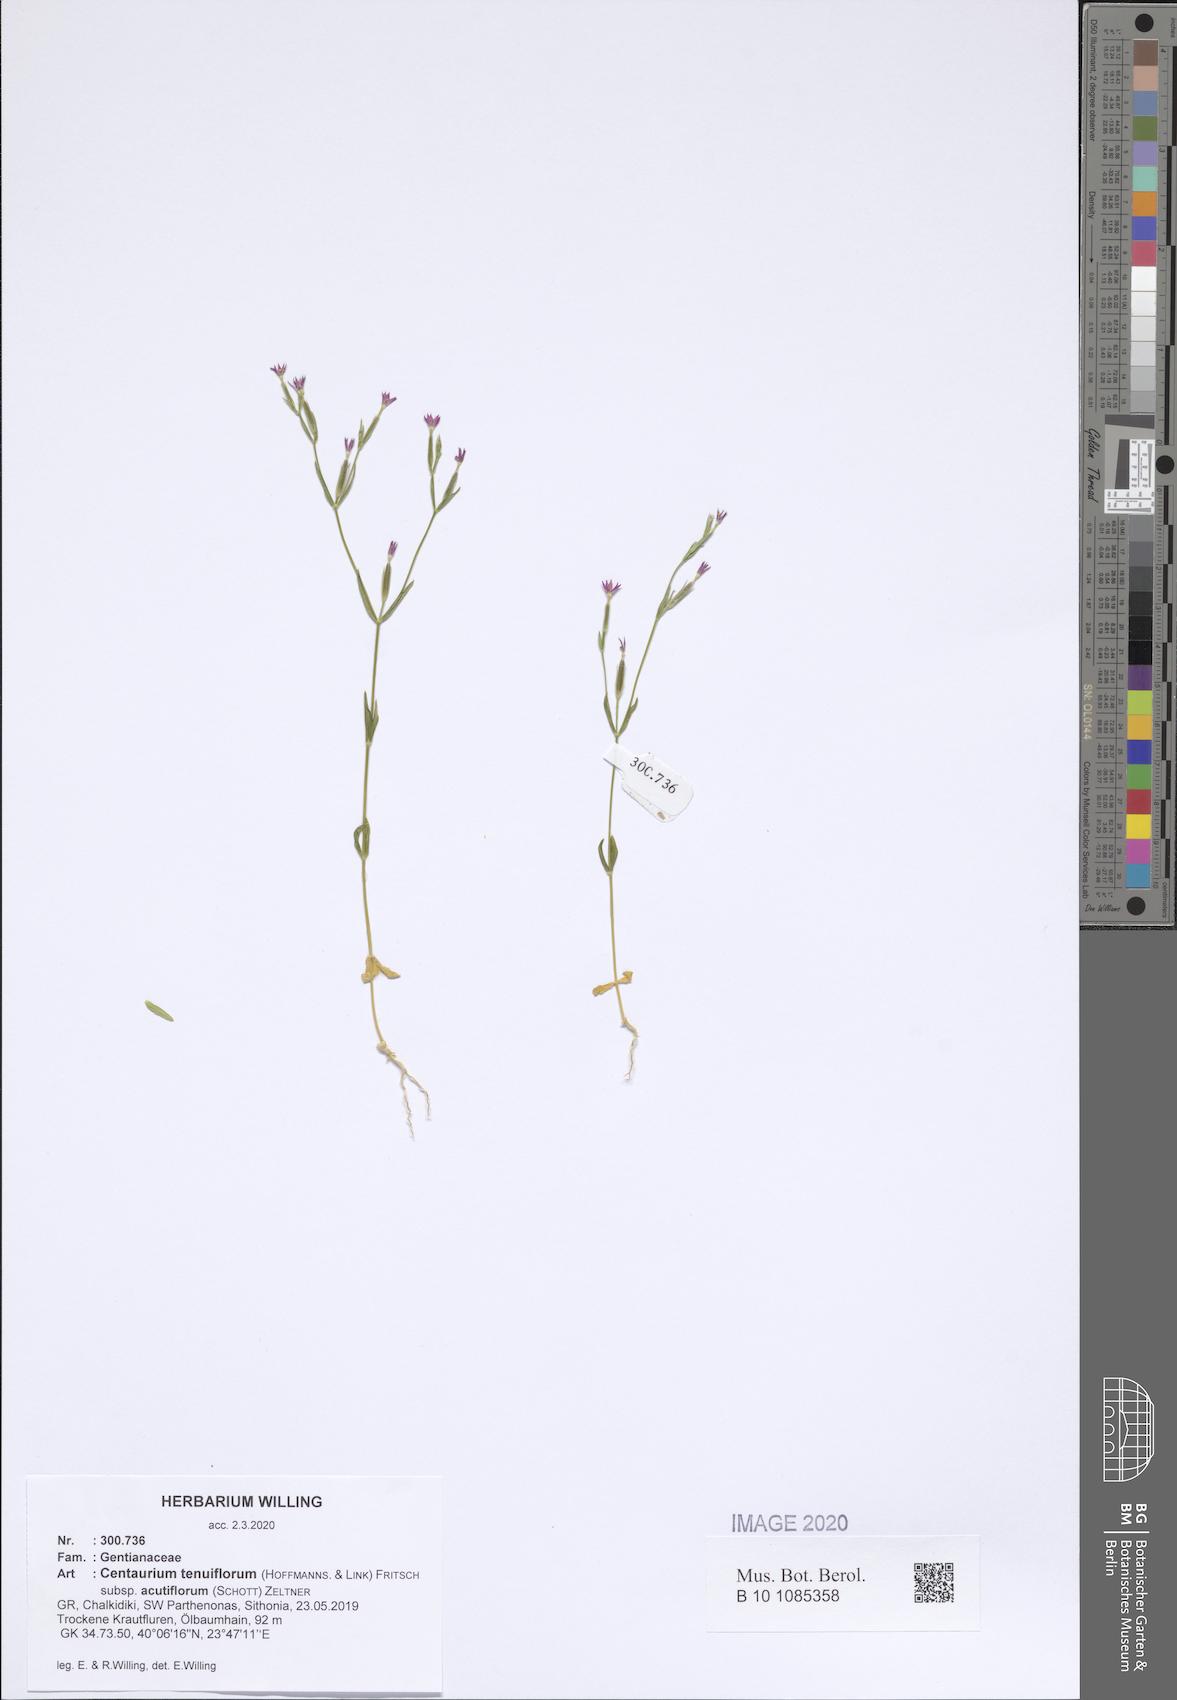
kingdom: Plantae
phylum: Tracheophyta
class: Magnoliopsida
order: Gentianales
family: Gentianaceae
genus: Centaurium
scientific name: Centaurium tenuiflorum
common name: Slender centaury
